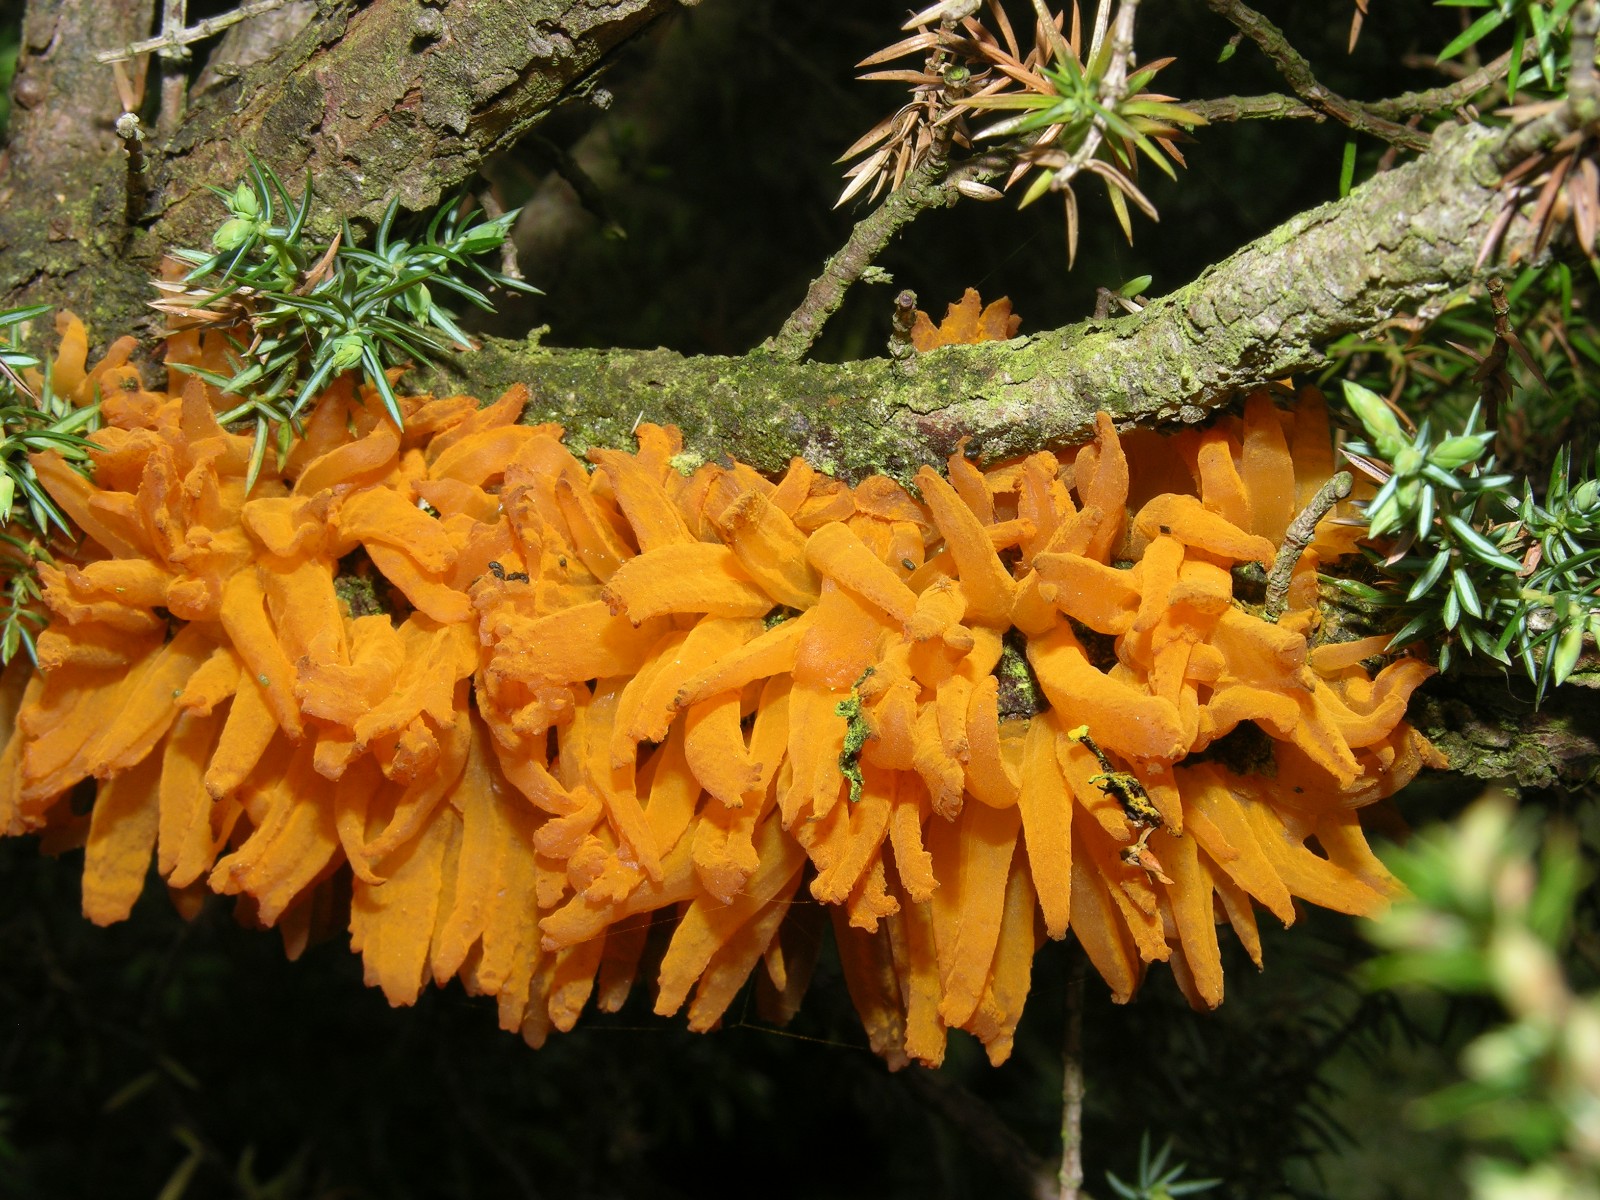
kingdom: Fungi
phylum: Basidiomycota
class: Pucciniomycetes
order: Pucciniales
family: Gymnosporangiaceae
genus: Gymnosporangium
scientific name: Gymnosporangium clavariiforme
